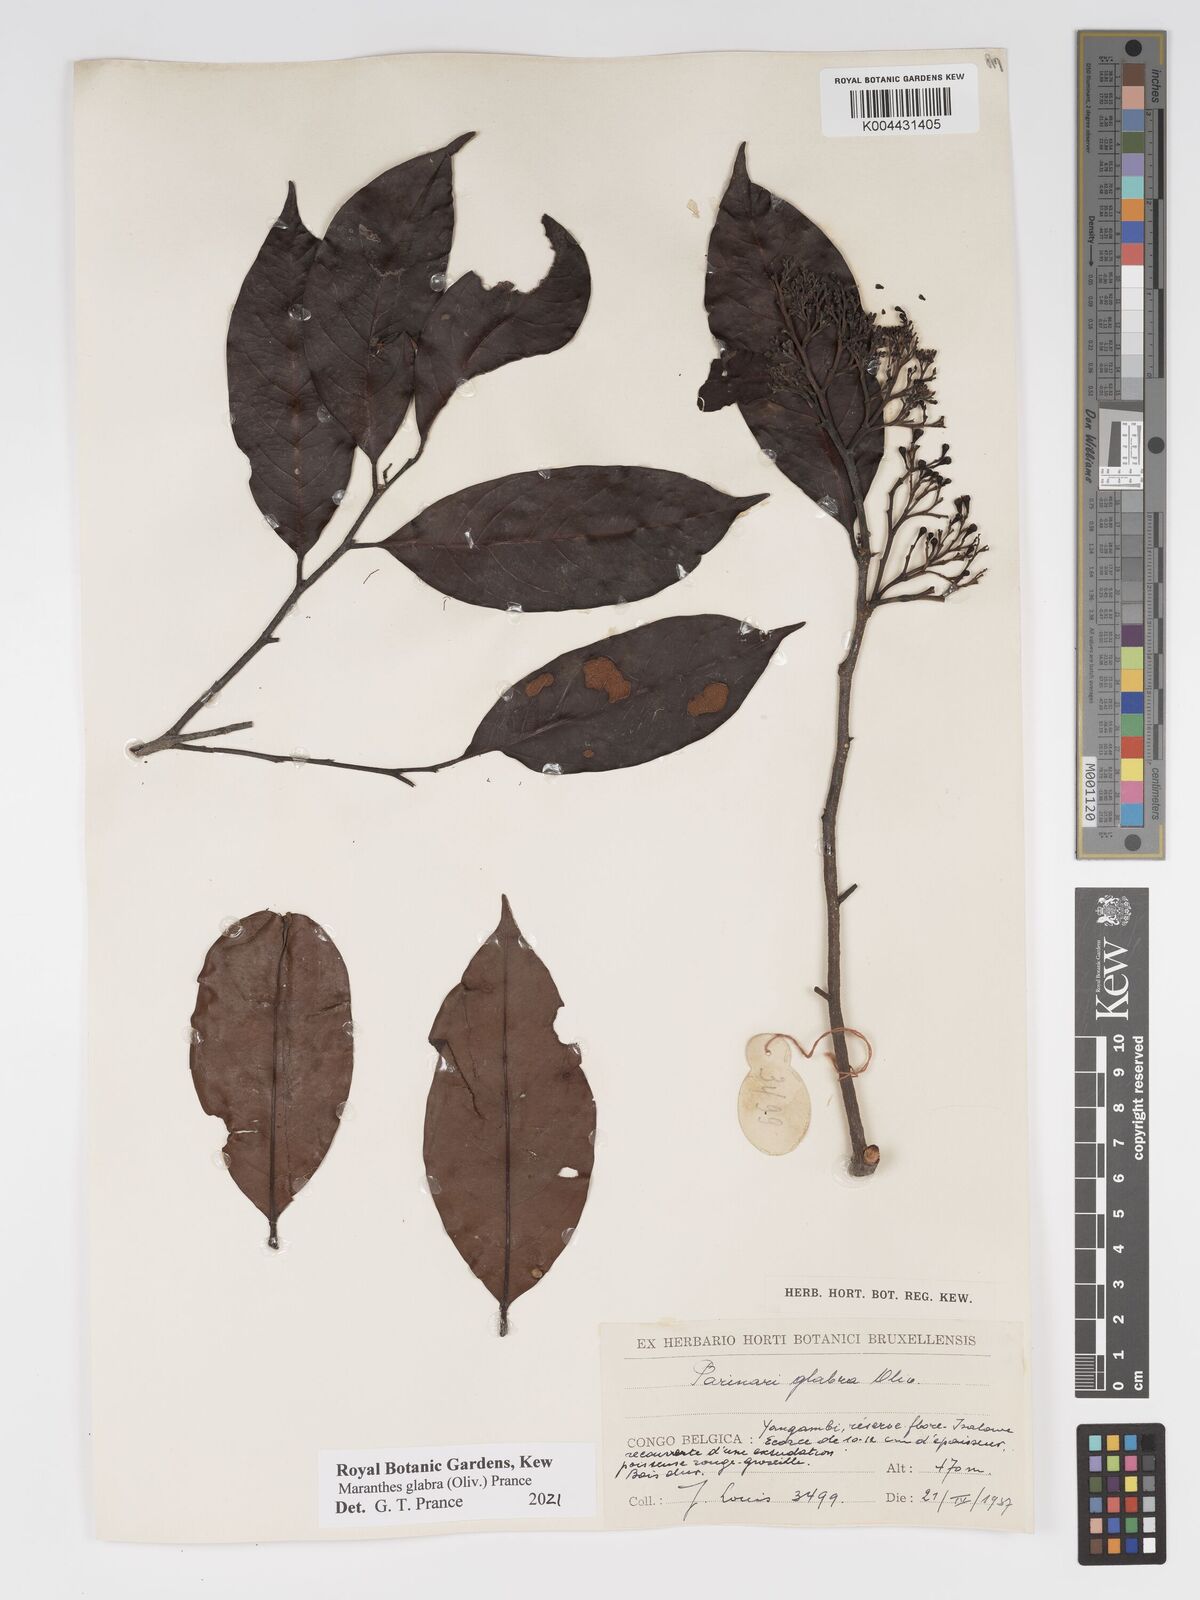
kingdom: Plantae
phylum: Tracheophyta
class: Magnoliopsida
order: Malpighiales
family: Chrysobalanaceae
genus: Maranthes
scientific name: Maranthes glabra
